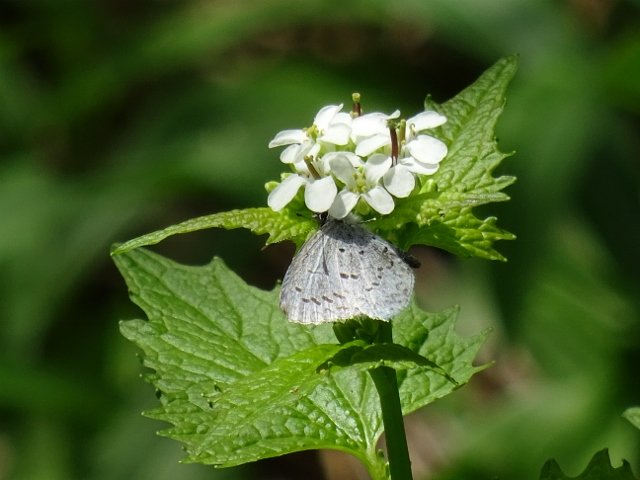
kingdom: Animalia
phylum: Arthropoda
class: Insecta
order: Lepidoptera
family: Lycaenidae
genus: Celastrina
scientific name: Celastrina
